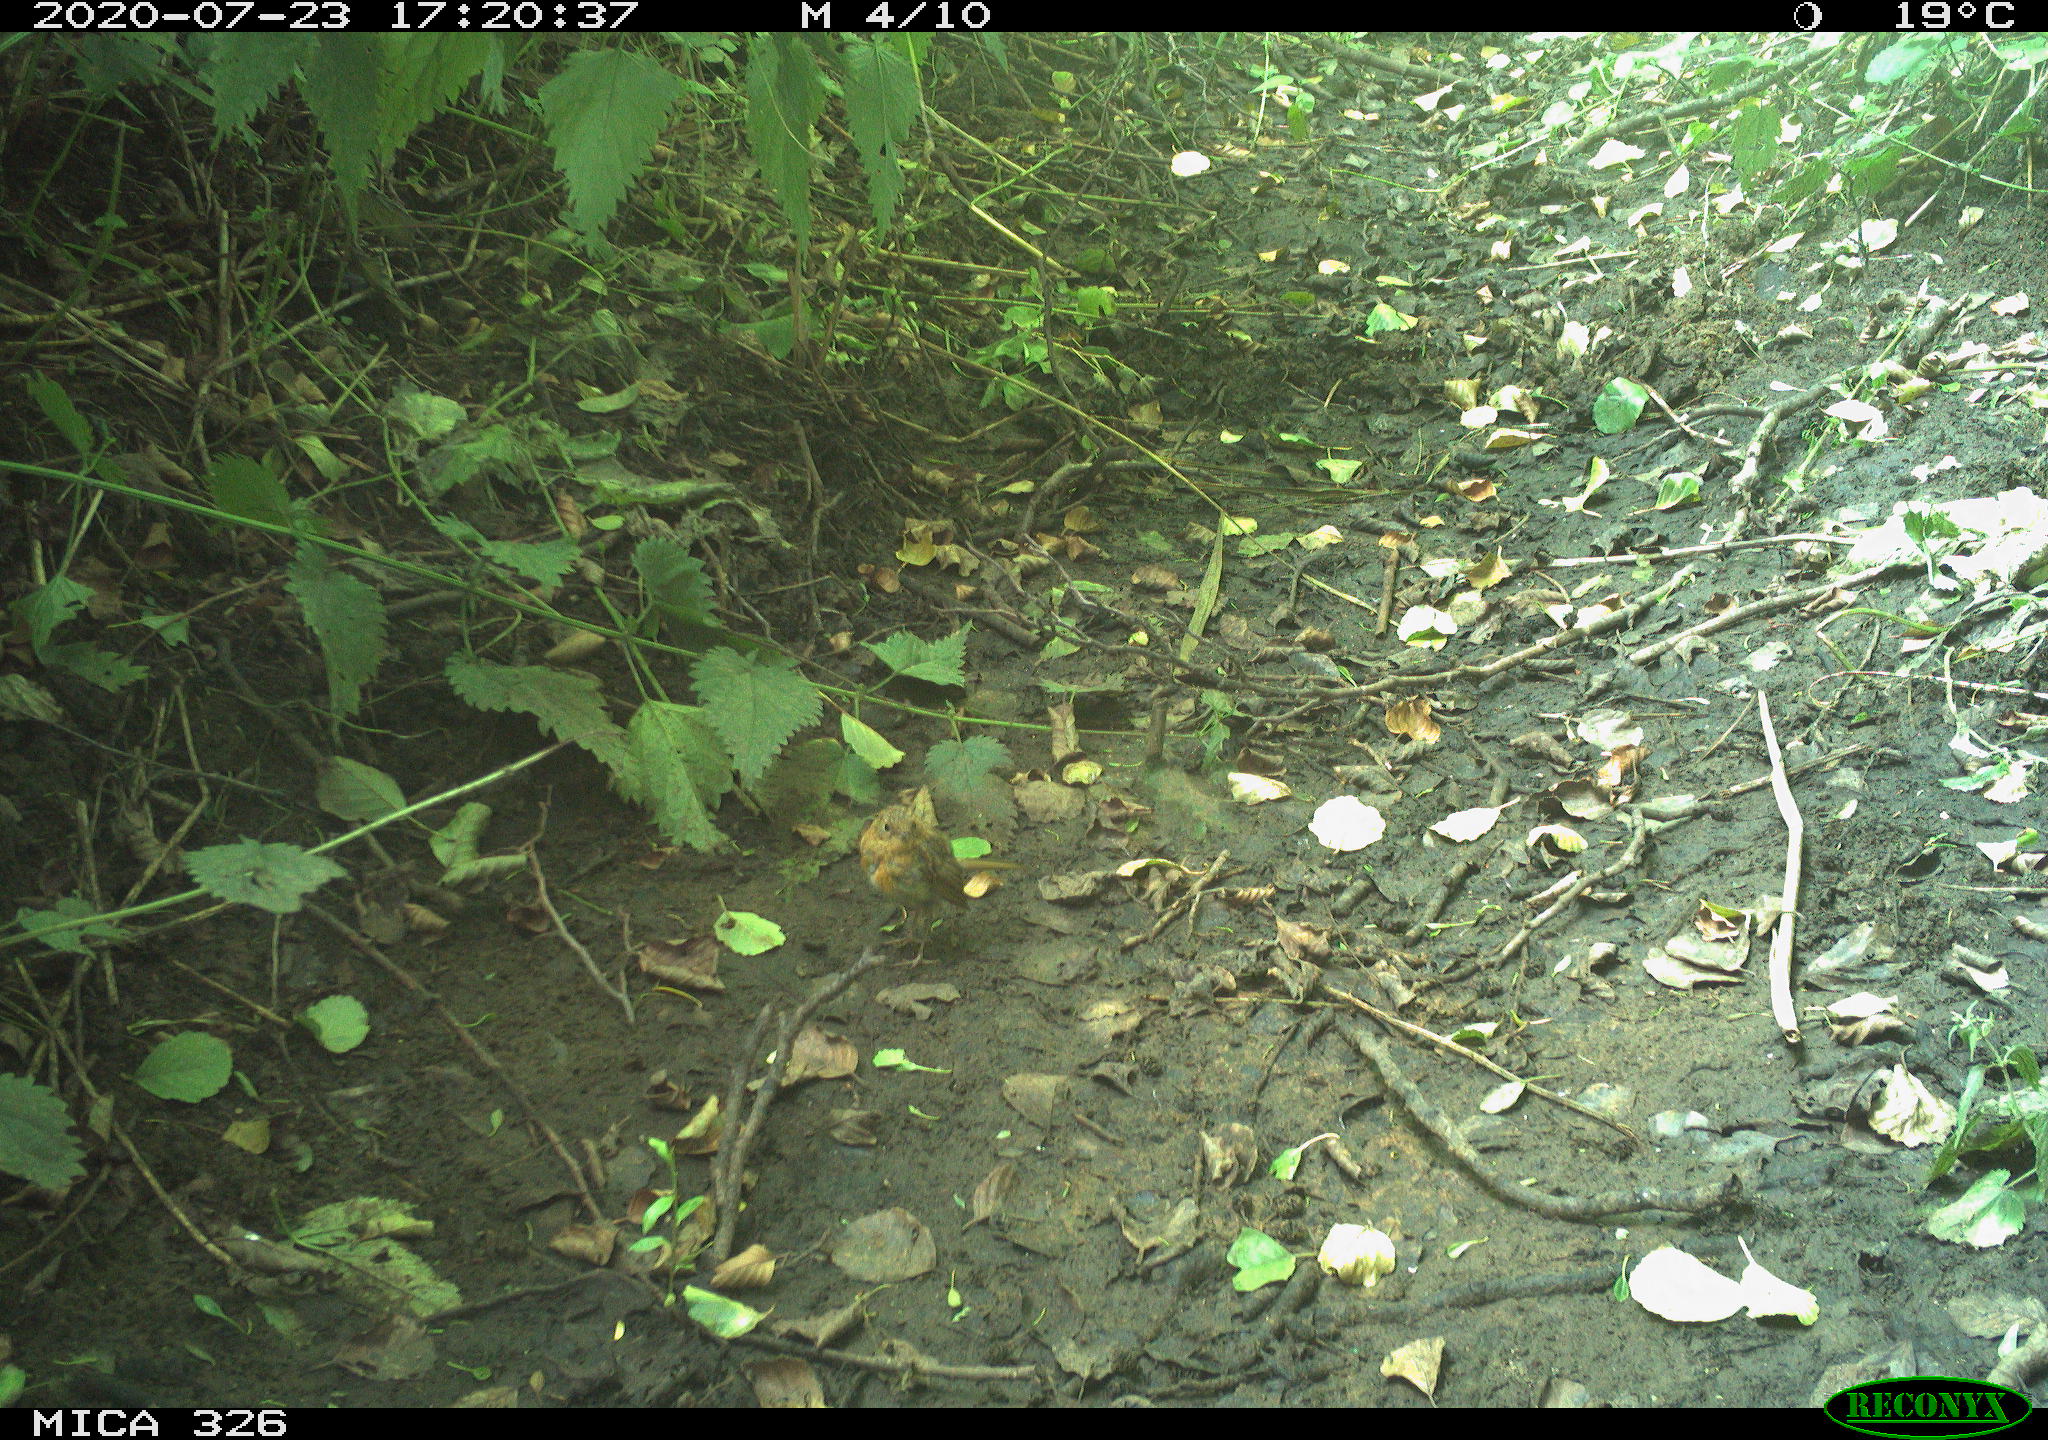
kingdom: Animalia
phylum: Chordata
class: Aves
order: Passeriformes
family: Muscicapidae
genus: Erithacus
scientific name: Erithacus rubecula
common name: European robin
